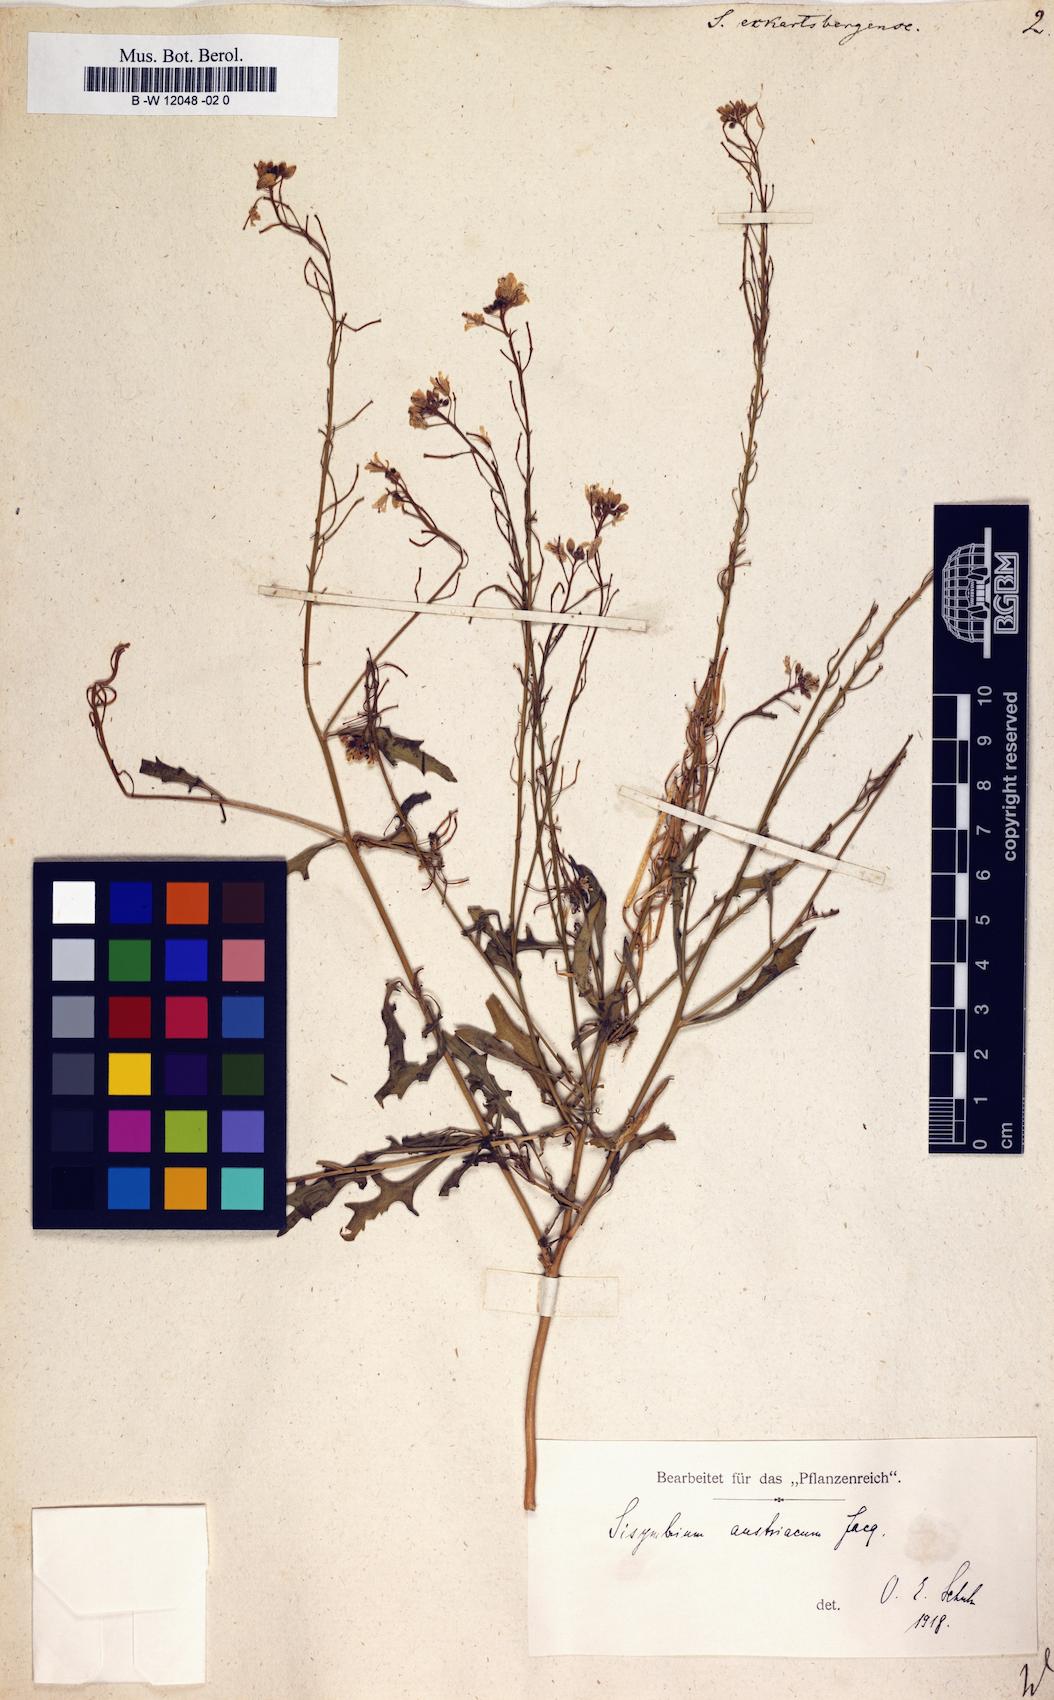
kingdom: Plantae
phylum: Tracheophyta
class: Magnoliopsida
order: Brassicales
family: Brassicaceae
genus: Sisymbrium
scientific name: Sisymbrium austriacum
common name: Jeweled rocket
